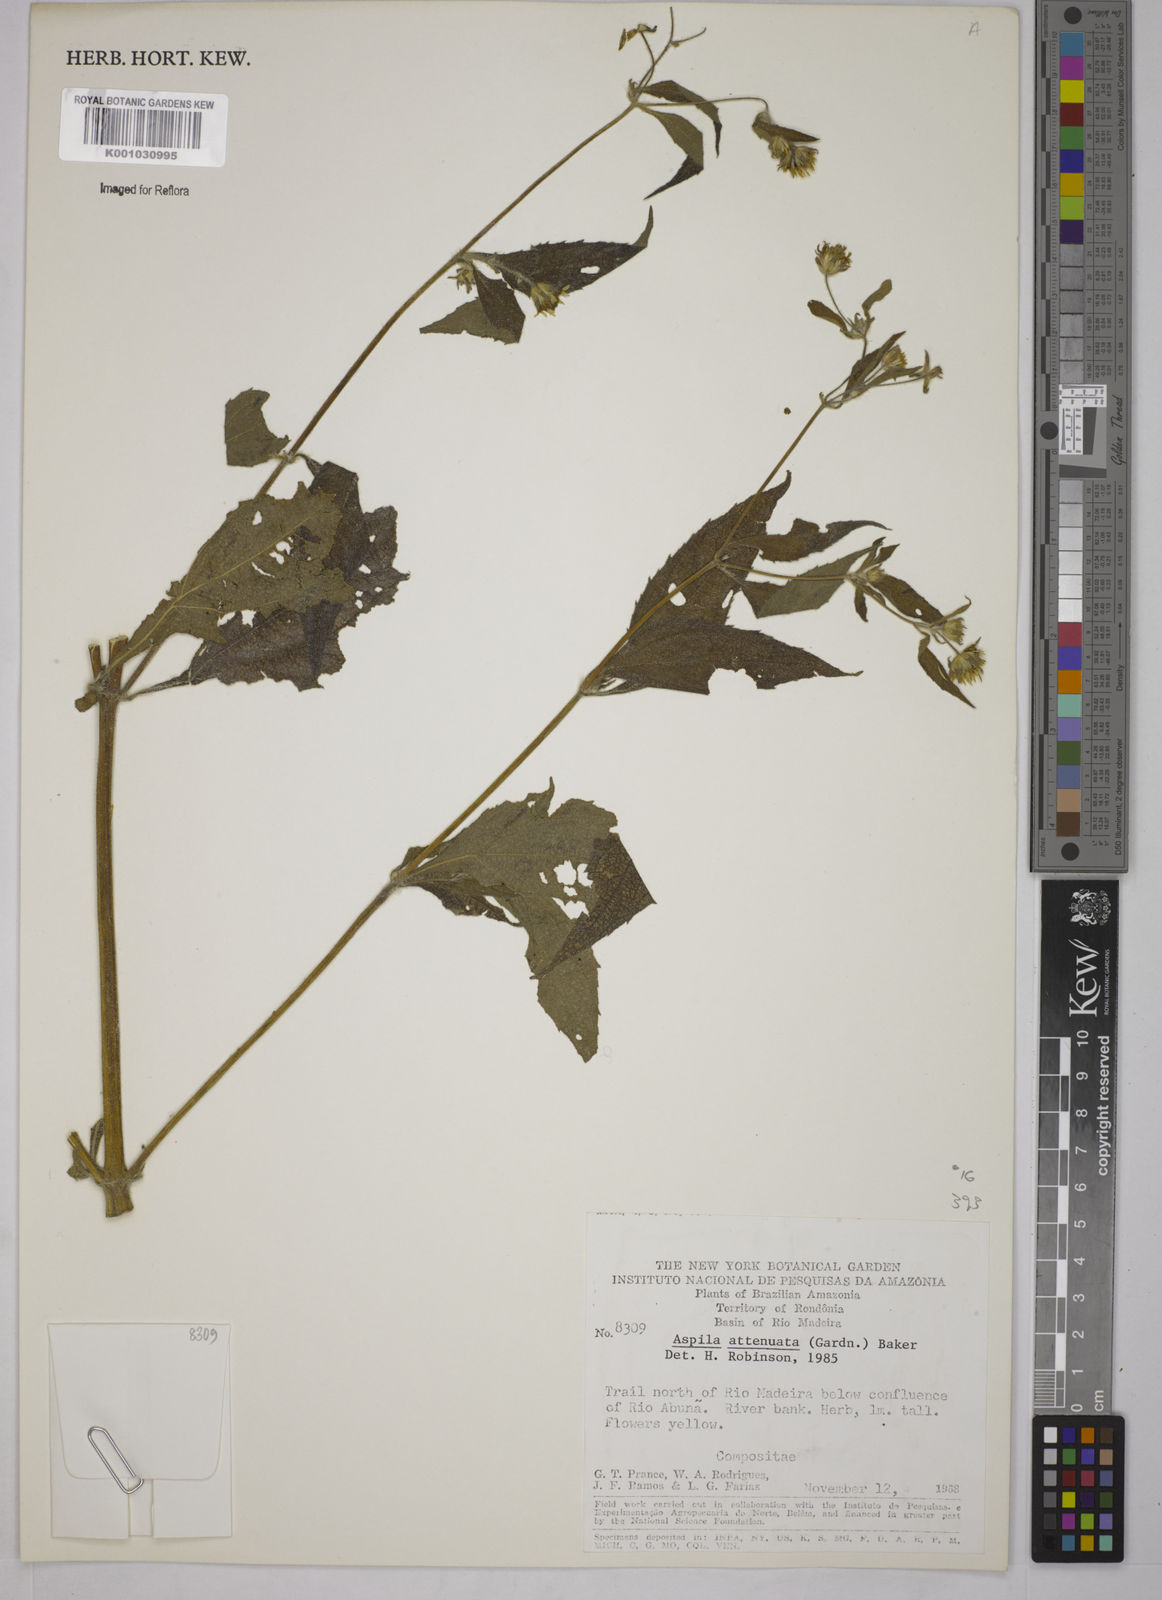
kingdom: Plantae
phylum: Tracheophyta
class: Magnoliopsida
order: Asterales
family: Asteraceae
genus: Wedelia
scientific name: Wedelia attenuata
